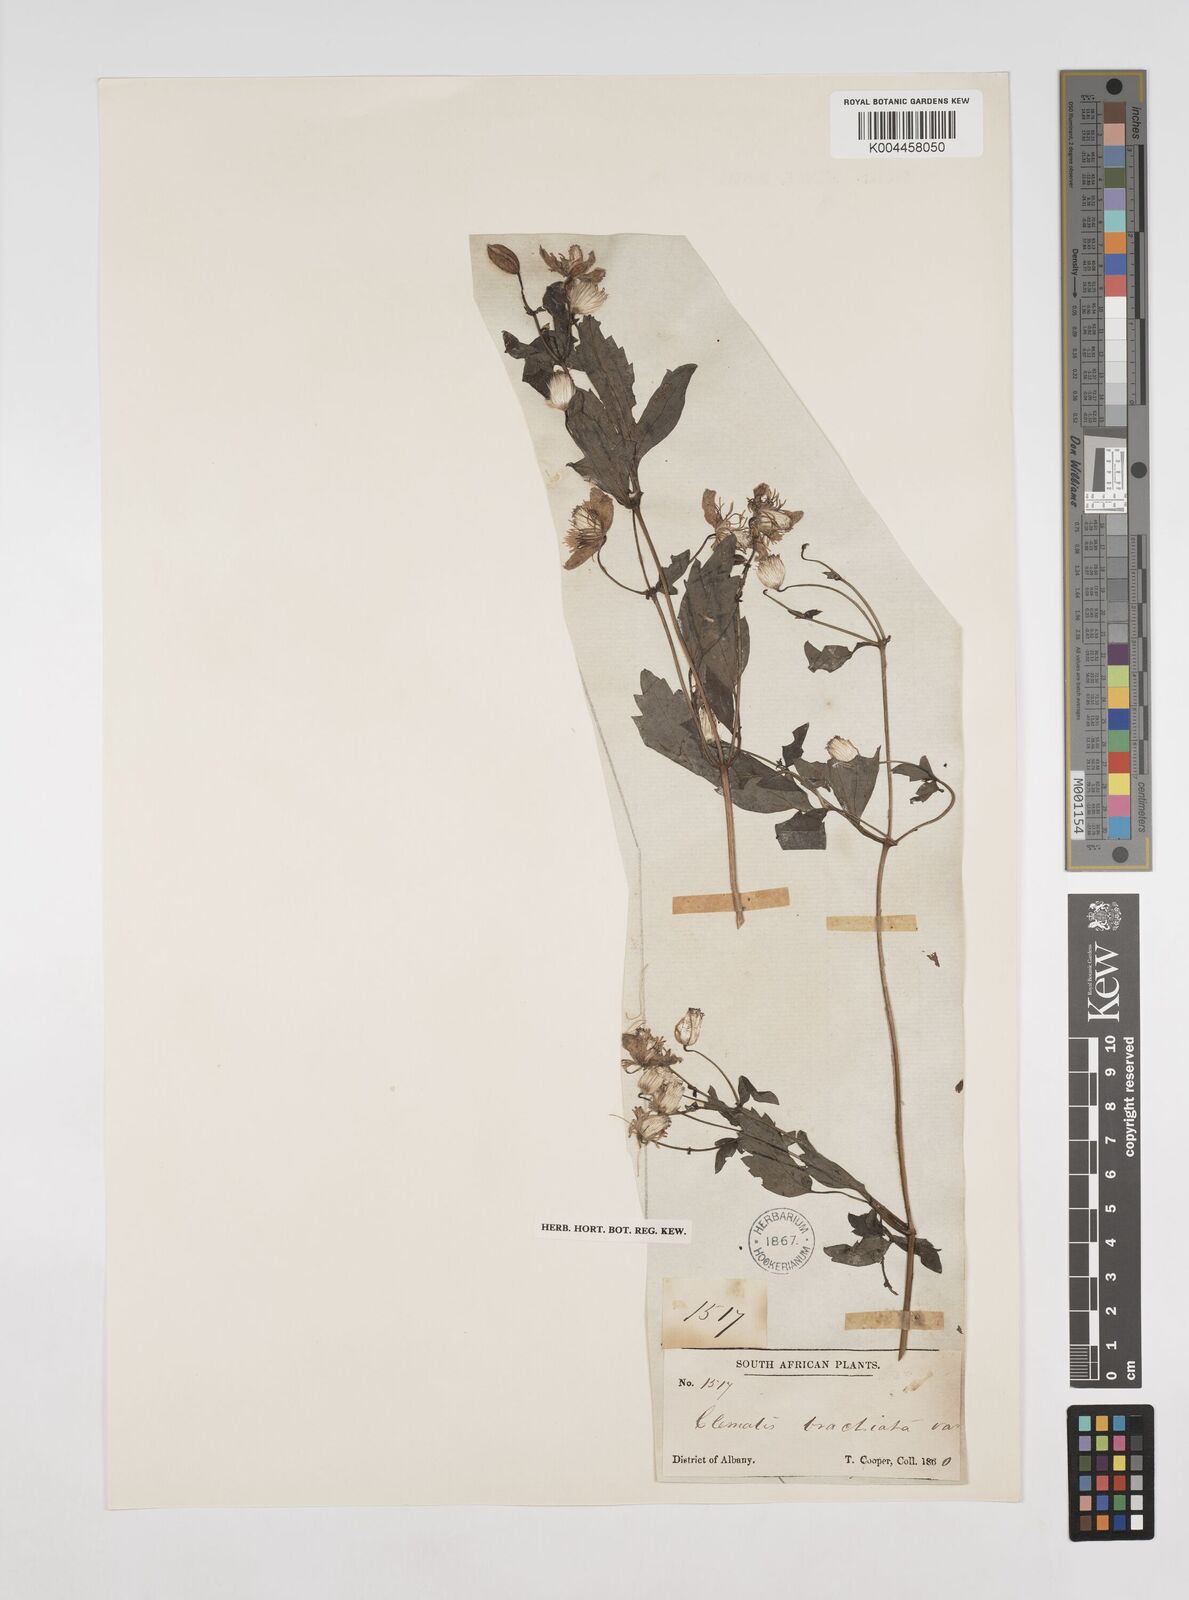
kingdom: Plantae
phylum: Tracheophyta
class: Magnoliopsida
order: Ranunculales
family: Ranunculaceae
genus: Clematis
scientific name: Clematis brachiata
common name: Traveler's-joy
